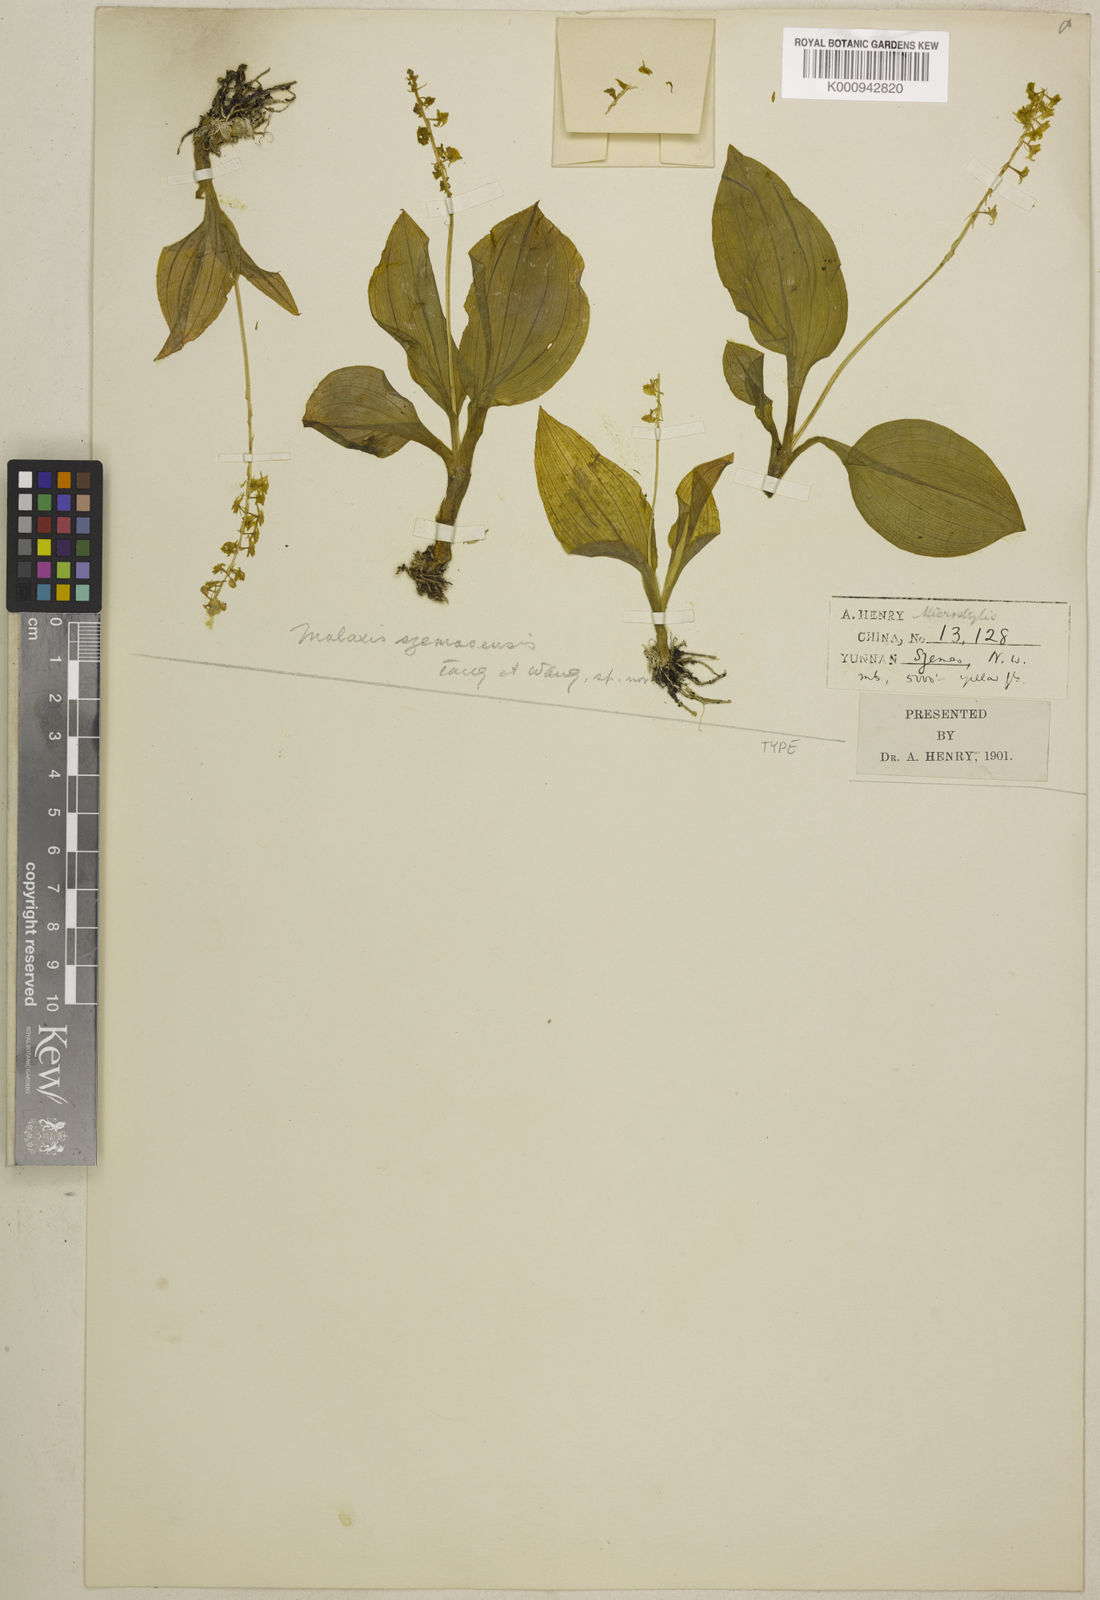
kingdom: Plantae
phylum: Tracheophyta
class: Liliopsida
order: Asparagales
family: Orchidaceae
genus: Crepidium
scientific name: Crepidium ovalisepalum
